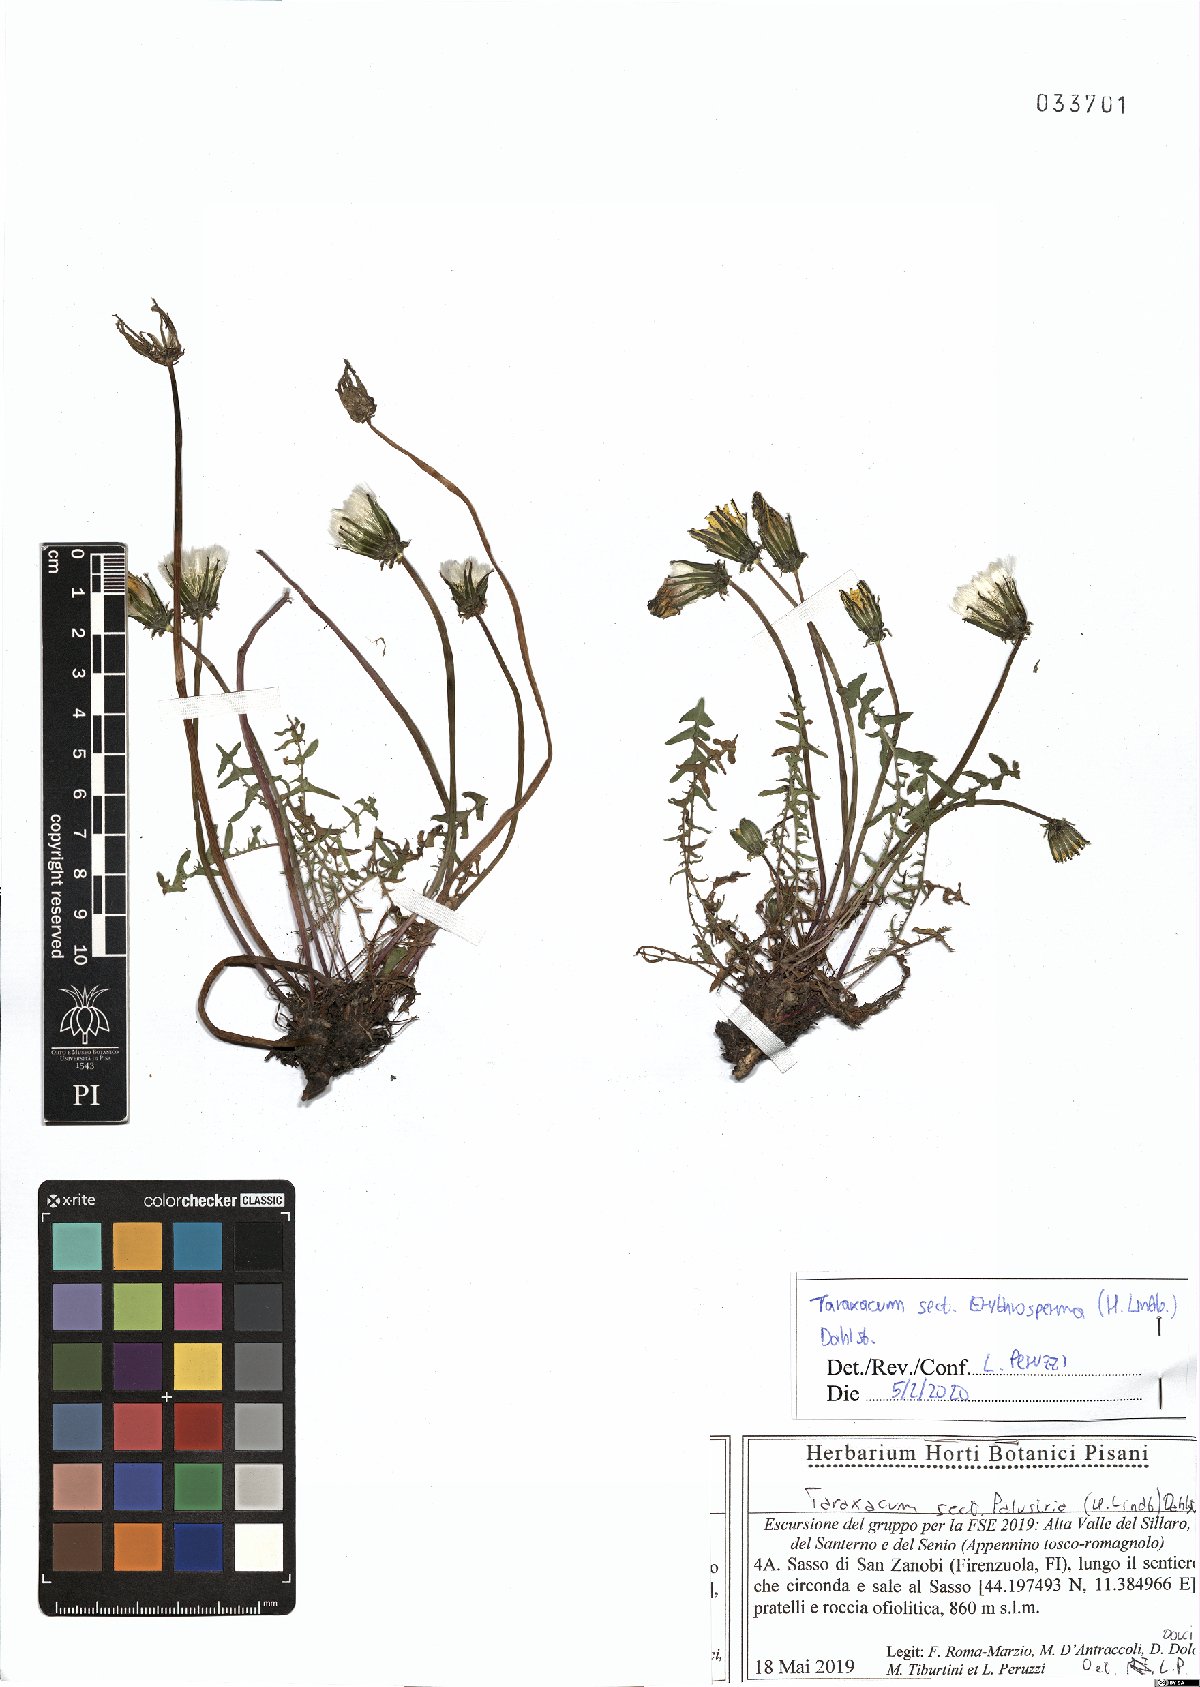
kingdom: Plantae
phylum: Tracheophyta
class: Magnoliopsida
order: Asterales
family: Asteraceae
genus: Taraxacum
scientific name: Taraxacum erythrospermum
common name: Rock dandelion
